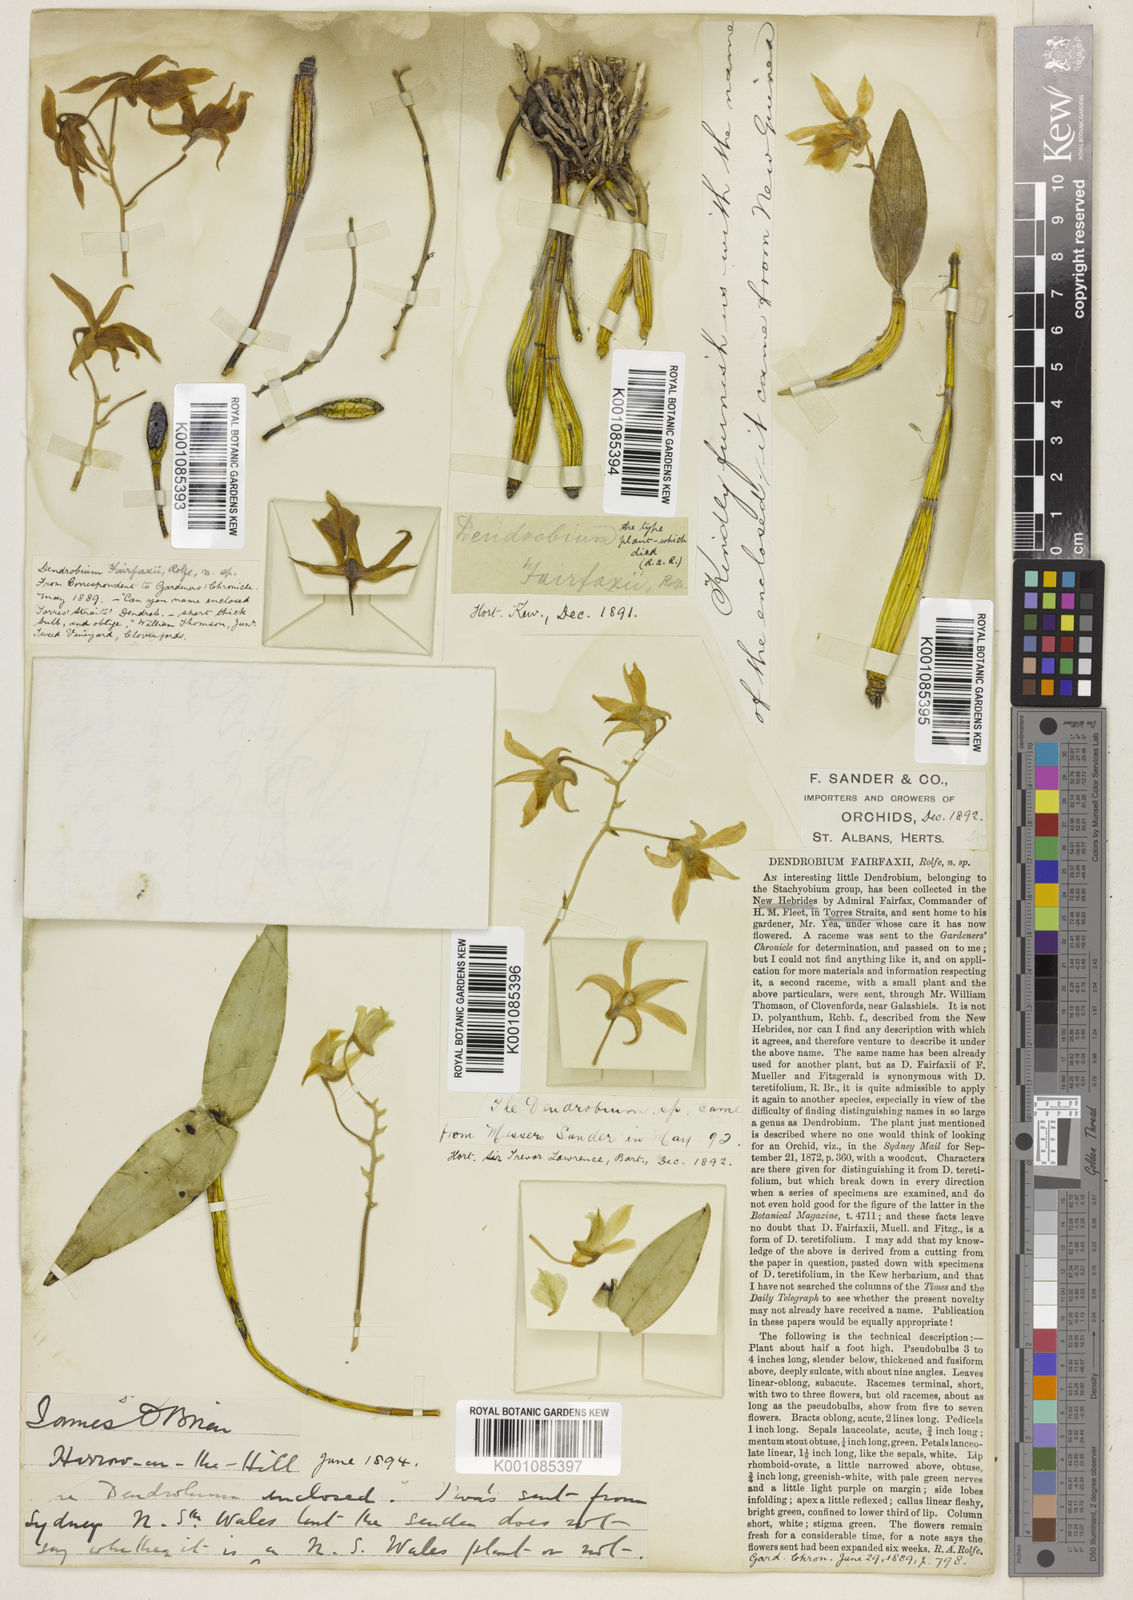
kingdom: Plantae
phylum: Tracheophyta
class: Liliopsida
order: Asparagales
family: Orchidaceae
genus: Dendrobium
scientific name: Dendrobium mooreanum
